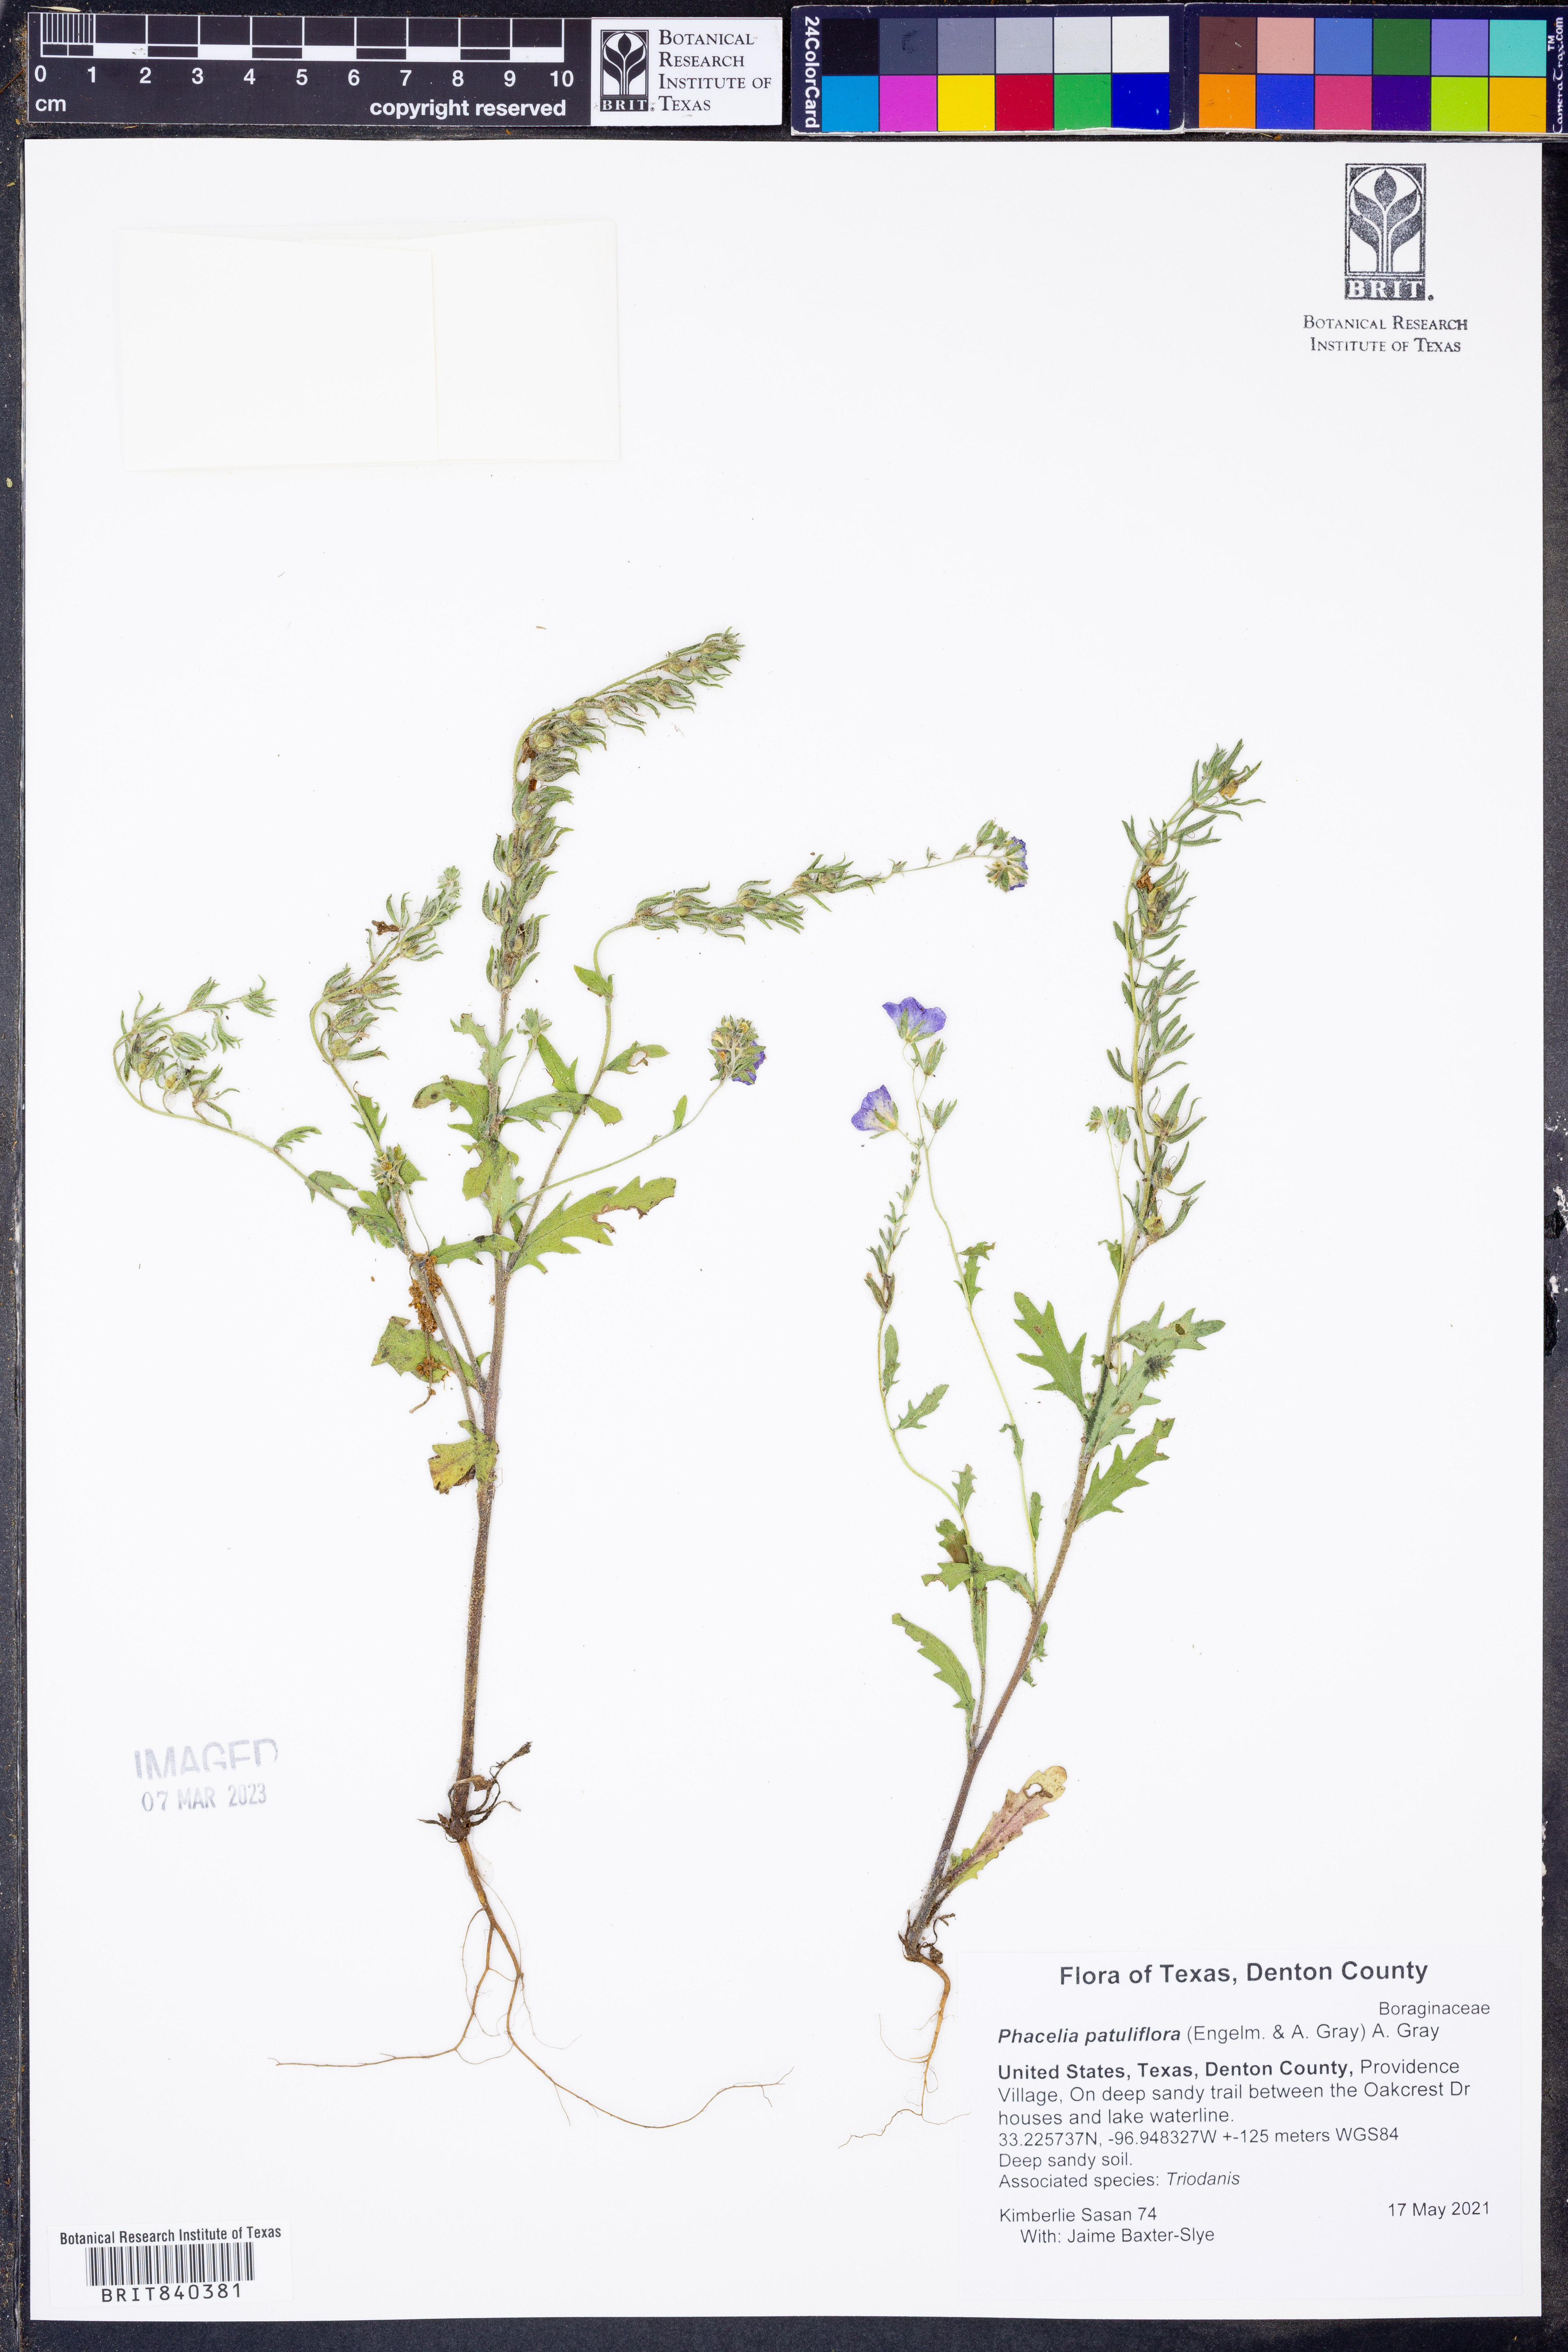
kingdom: Plantae
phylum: Tracheophyta
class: Magnoliopsida
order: Boraginales
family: Hydrophyllaceae
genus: Phacelia
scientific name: Phacelia patuliflora
